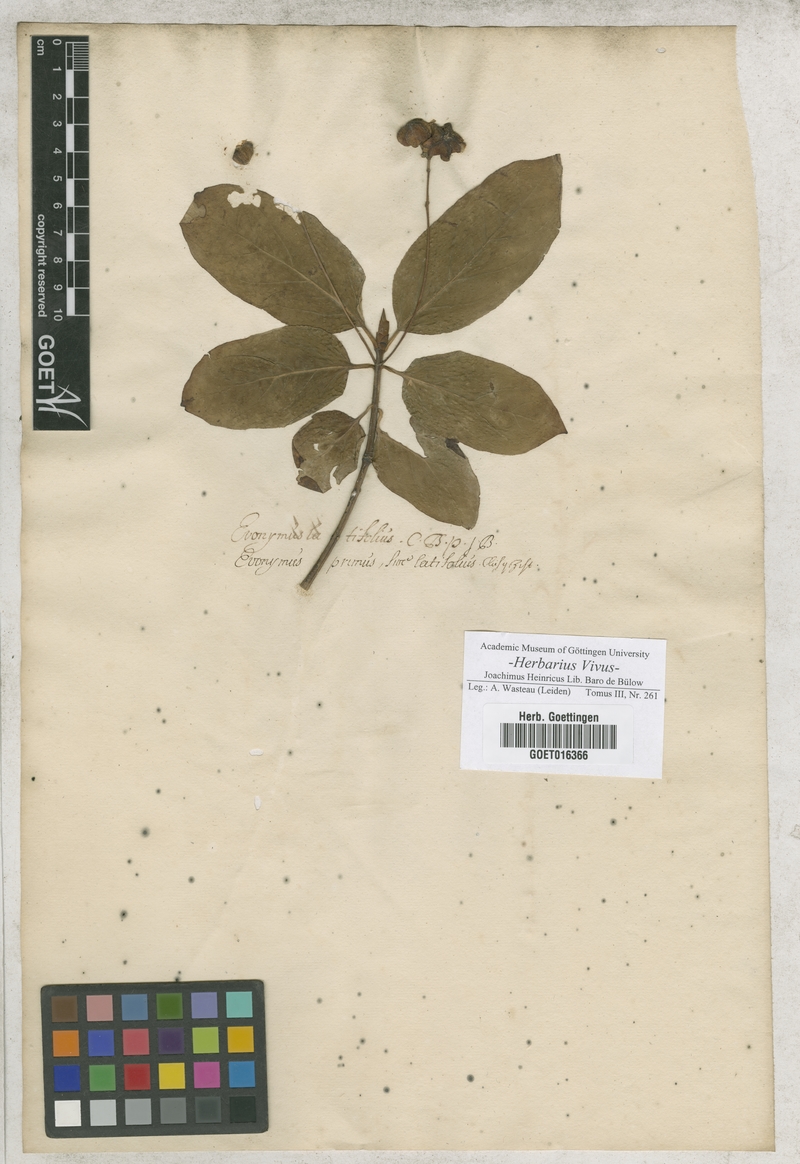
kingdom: Plantae
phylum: Tracheophyta
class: Magnoliopsida
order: Celastrales
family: Celastraceae
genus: Euonymus
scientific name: Euonymus latifolius
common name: Large-leaved spindle
